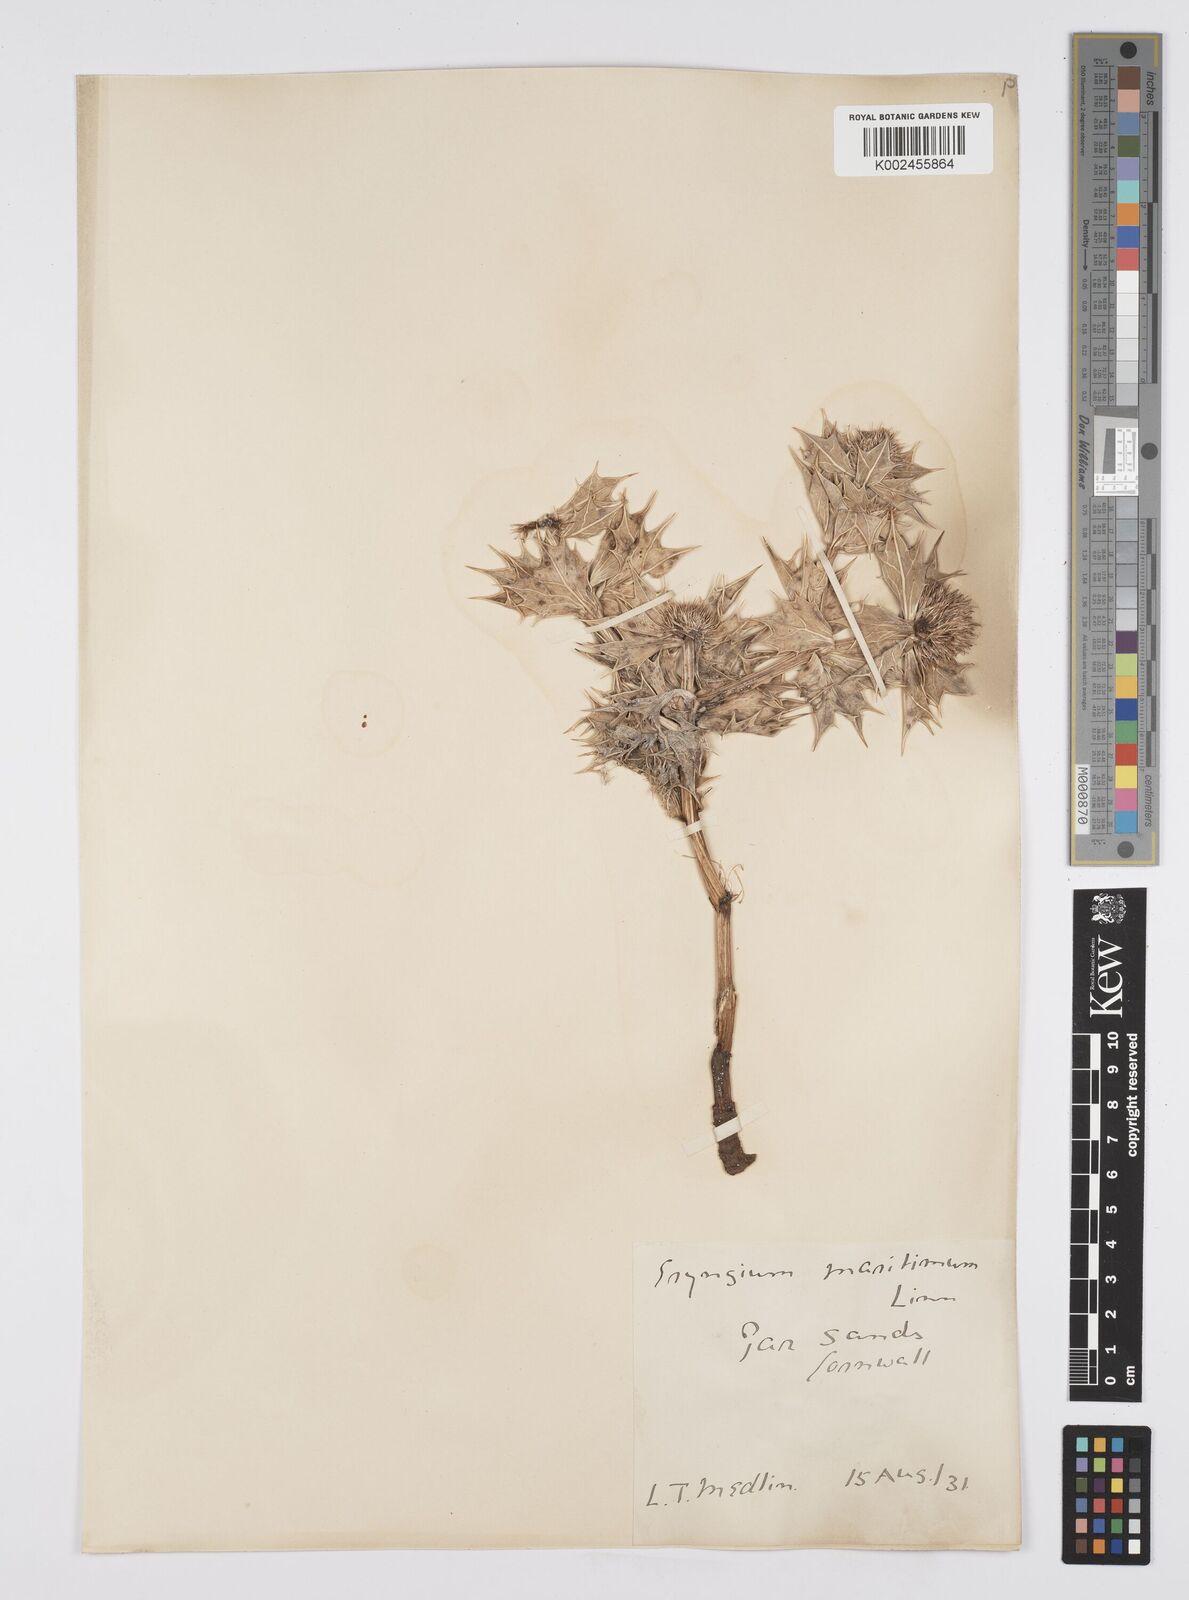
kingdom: Plantae
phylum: Tracheophyta
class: Magnoliopsida
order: Apiales
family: Apiaceae
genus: Eryngium
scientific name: Eryngium maritimum
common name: Sea-holly
